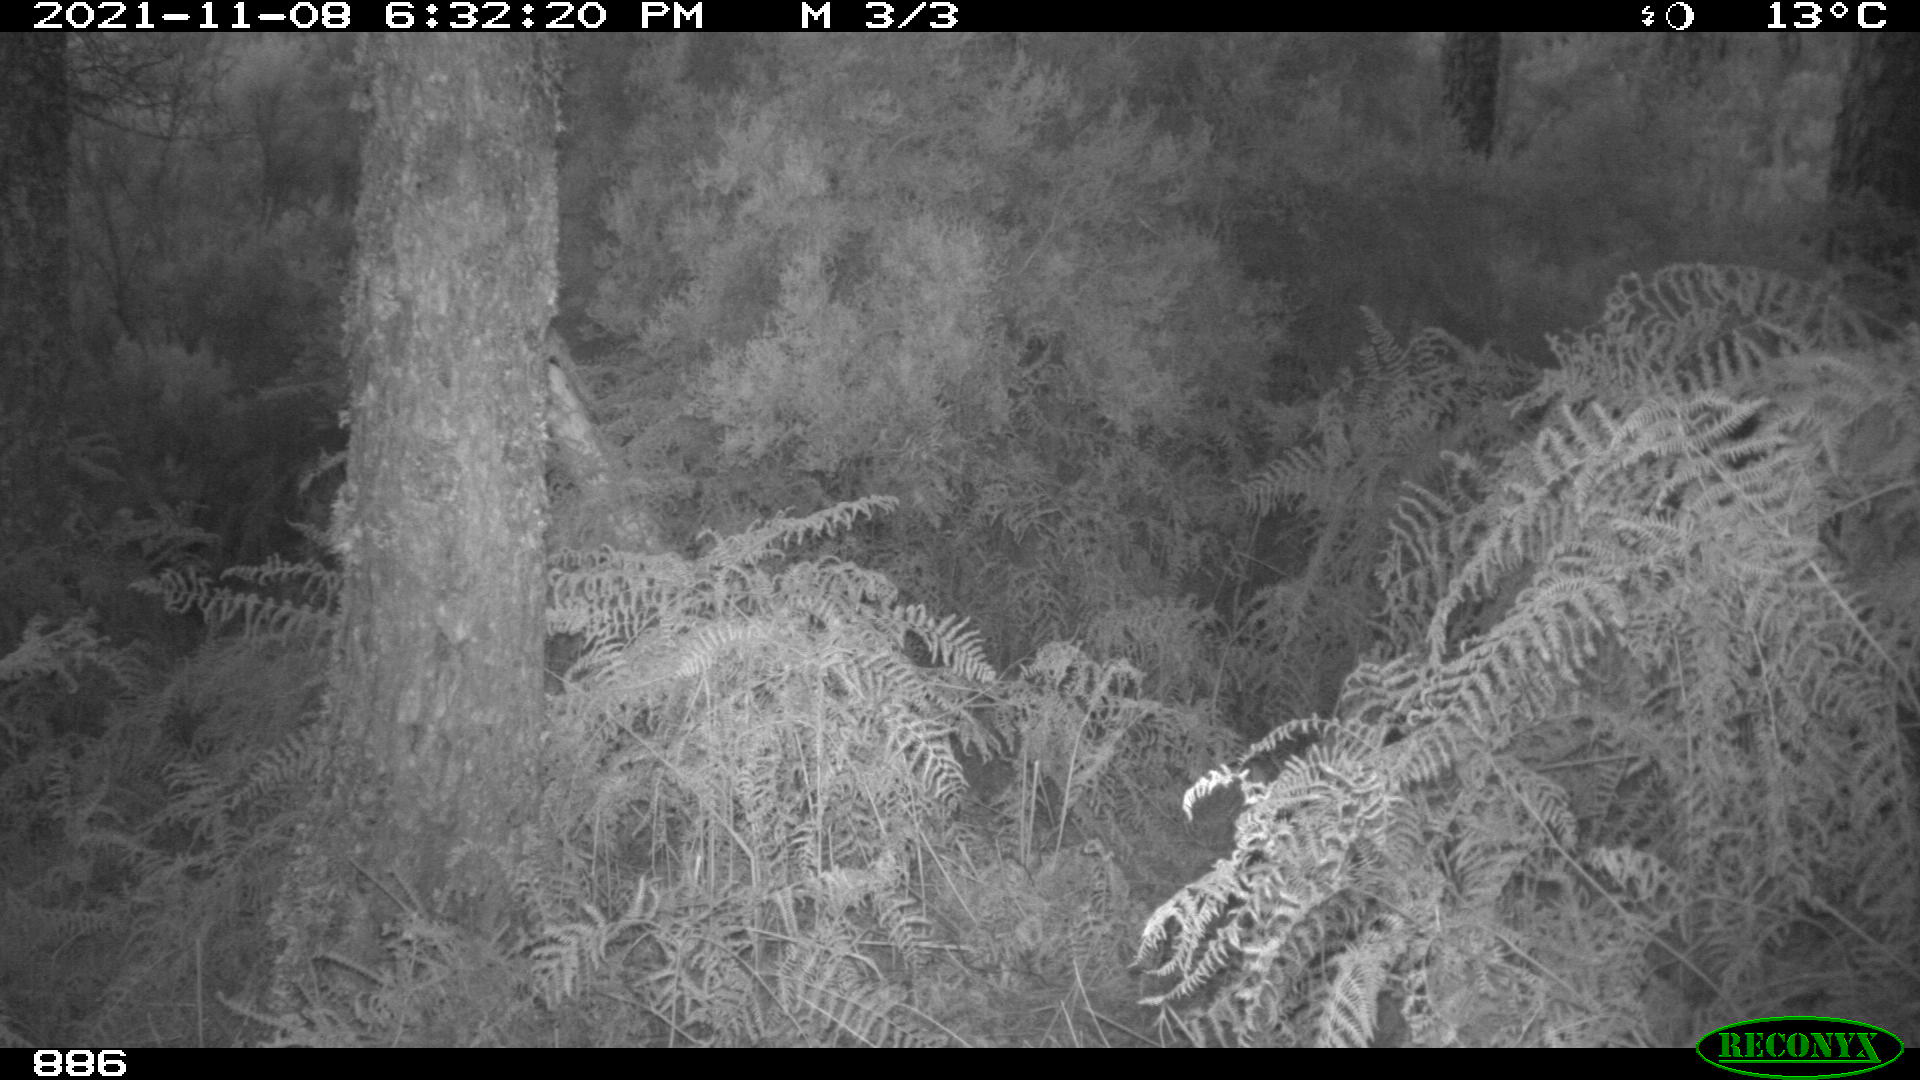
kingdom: Animalia
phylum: Chordata
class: Mammalia
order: Artiodactyla
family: Cervidae
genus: Capreolus
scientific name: Capreolus capreolus
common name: Western roe deer
